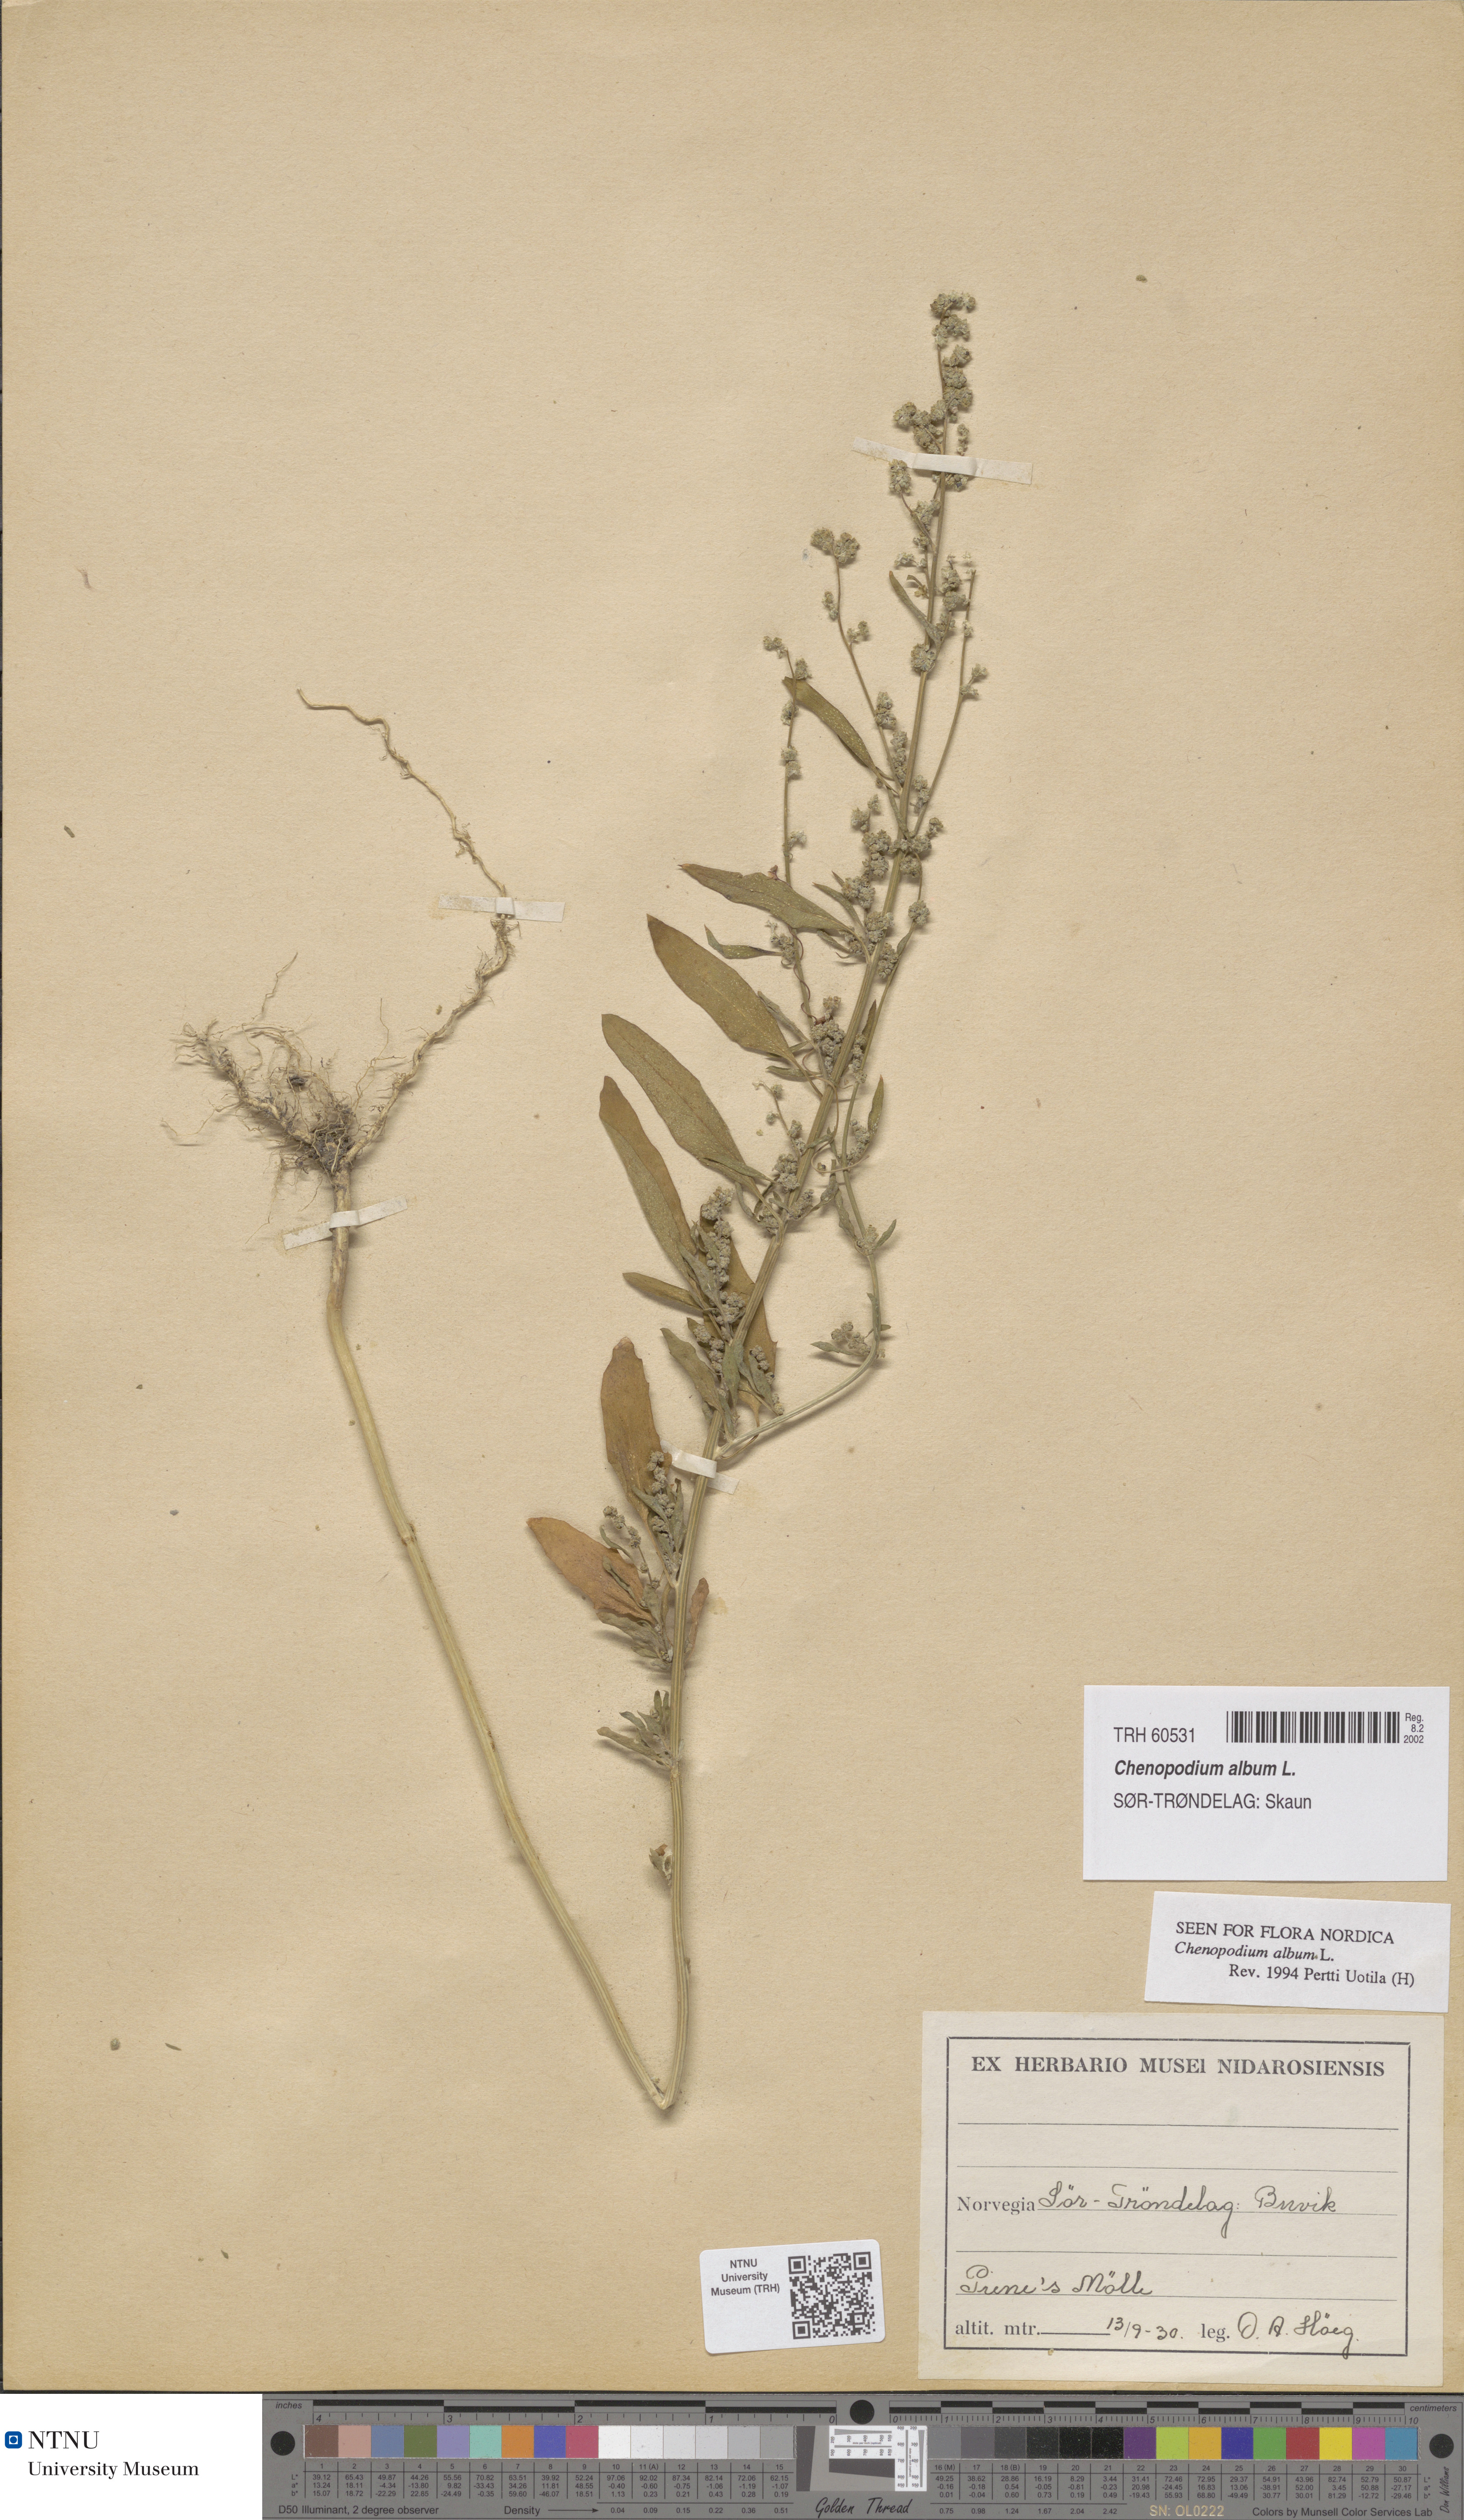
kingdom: Plantae
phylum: Tracheophyta
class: Magnoliopsida
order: Caryophyllales
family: Amaranthaceae
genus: Chenopodium
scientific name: Chenopodium album
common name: Fat-hen
